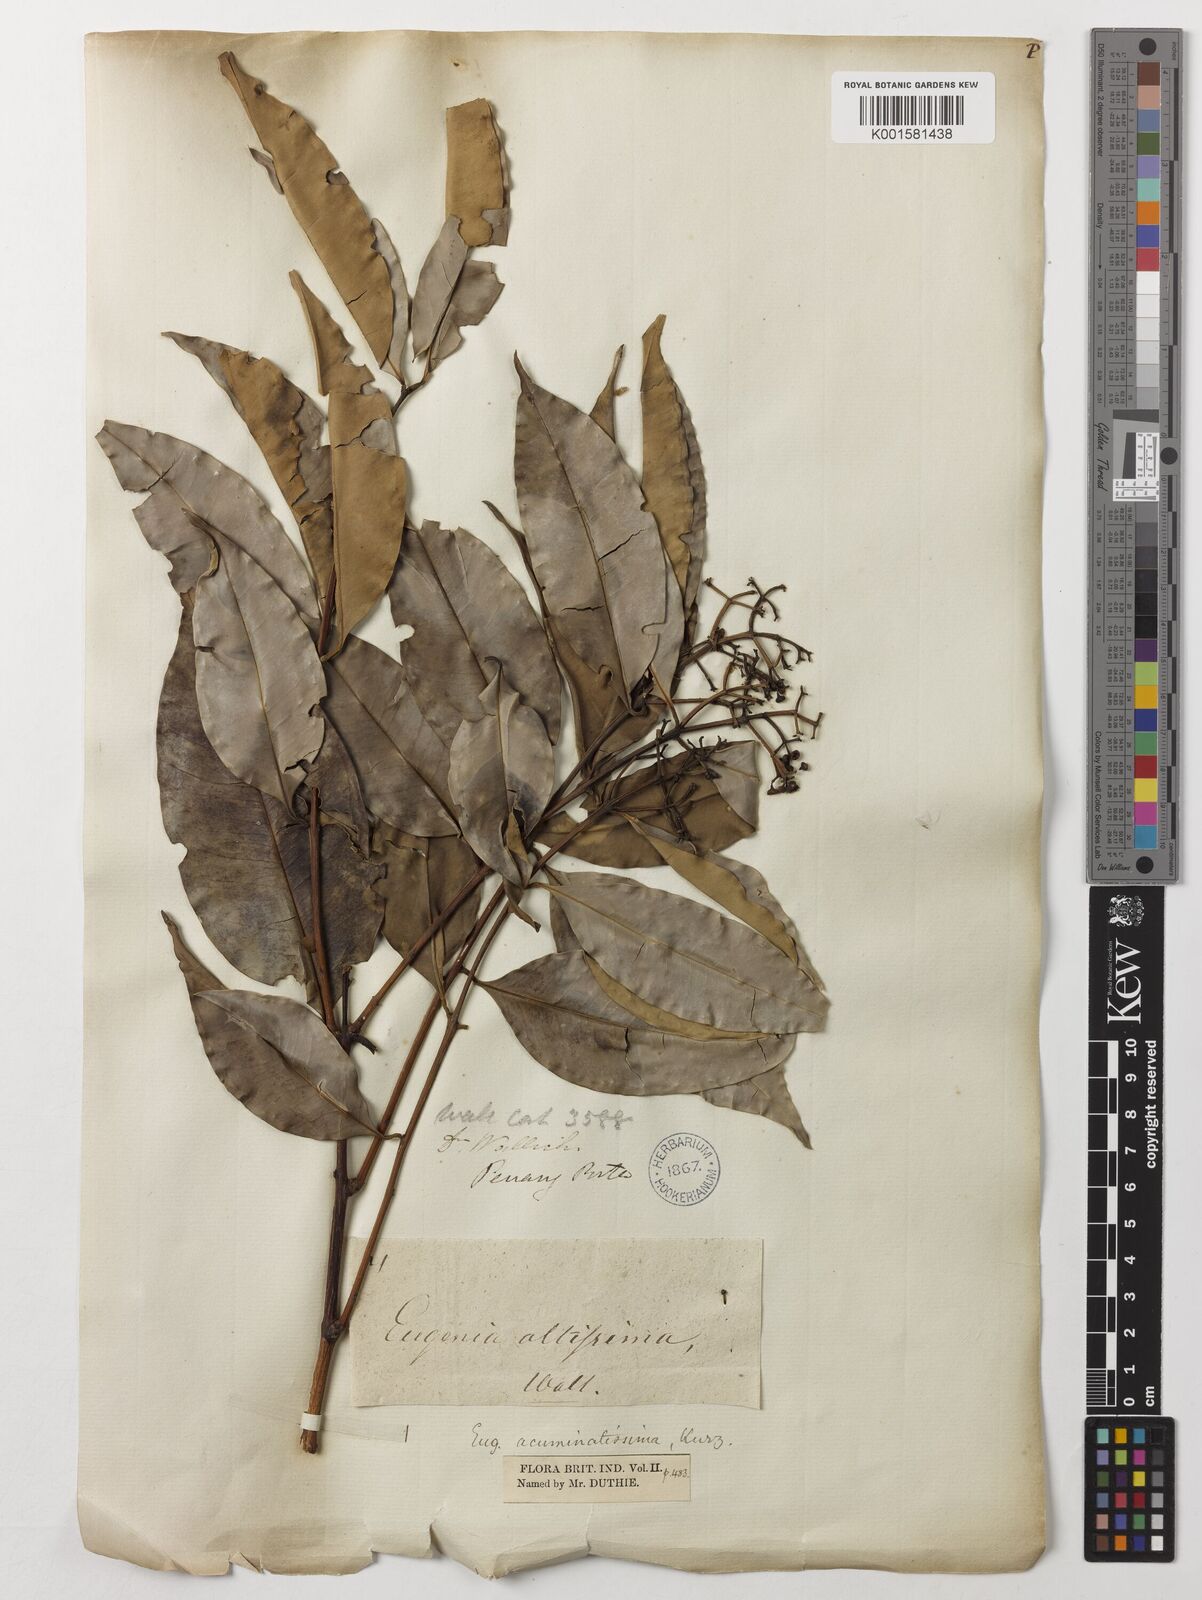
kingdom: Plantae
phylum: Tracheophyta
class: Magnoliopsida
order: Myrtales
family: Myrtaceae
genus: Eugenia
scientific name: Eugenia biflora
